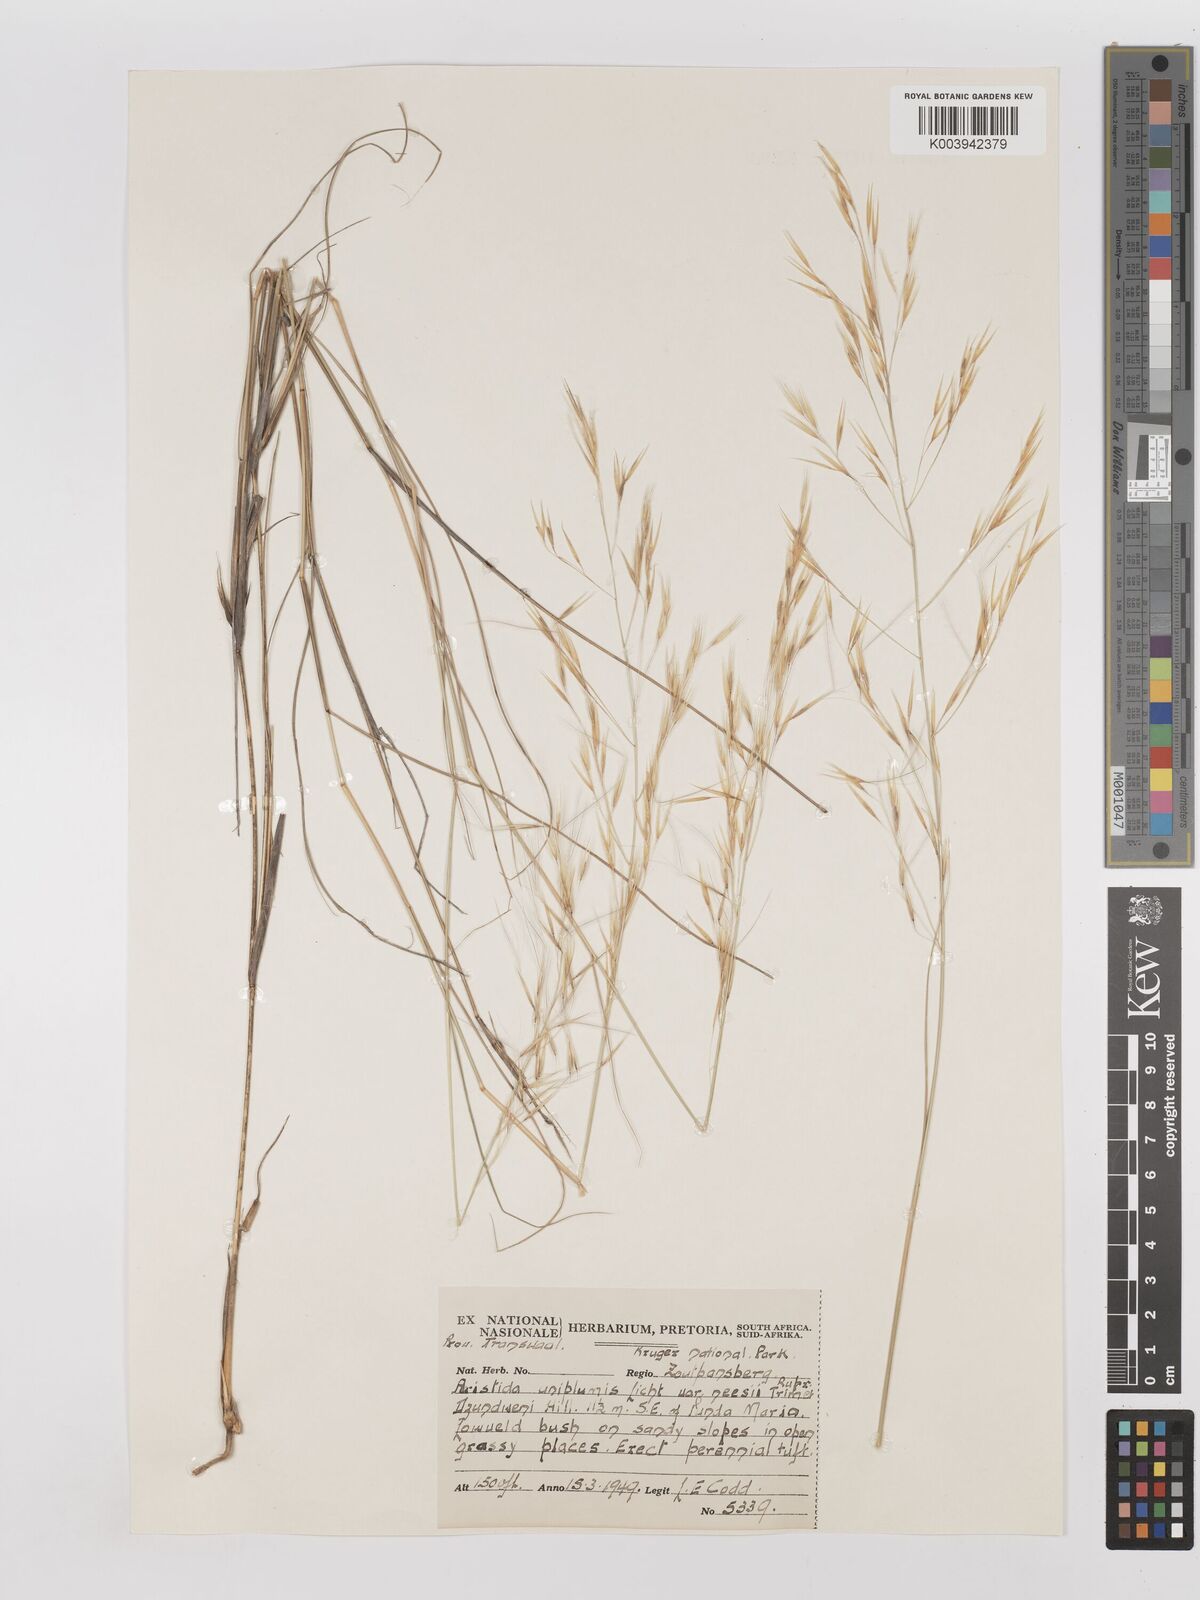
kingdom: Plantae
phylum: Tracheophyta
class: Liliopsida
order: Poales
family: Poaceae
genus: Stipagrostis
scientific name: Stipagrostis uniplumis
